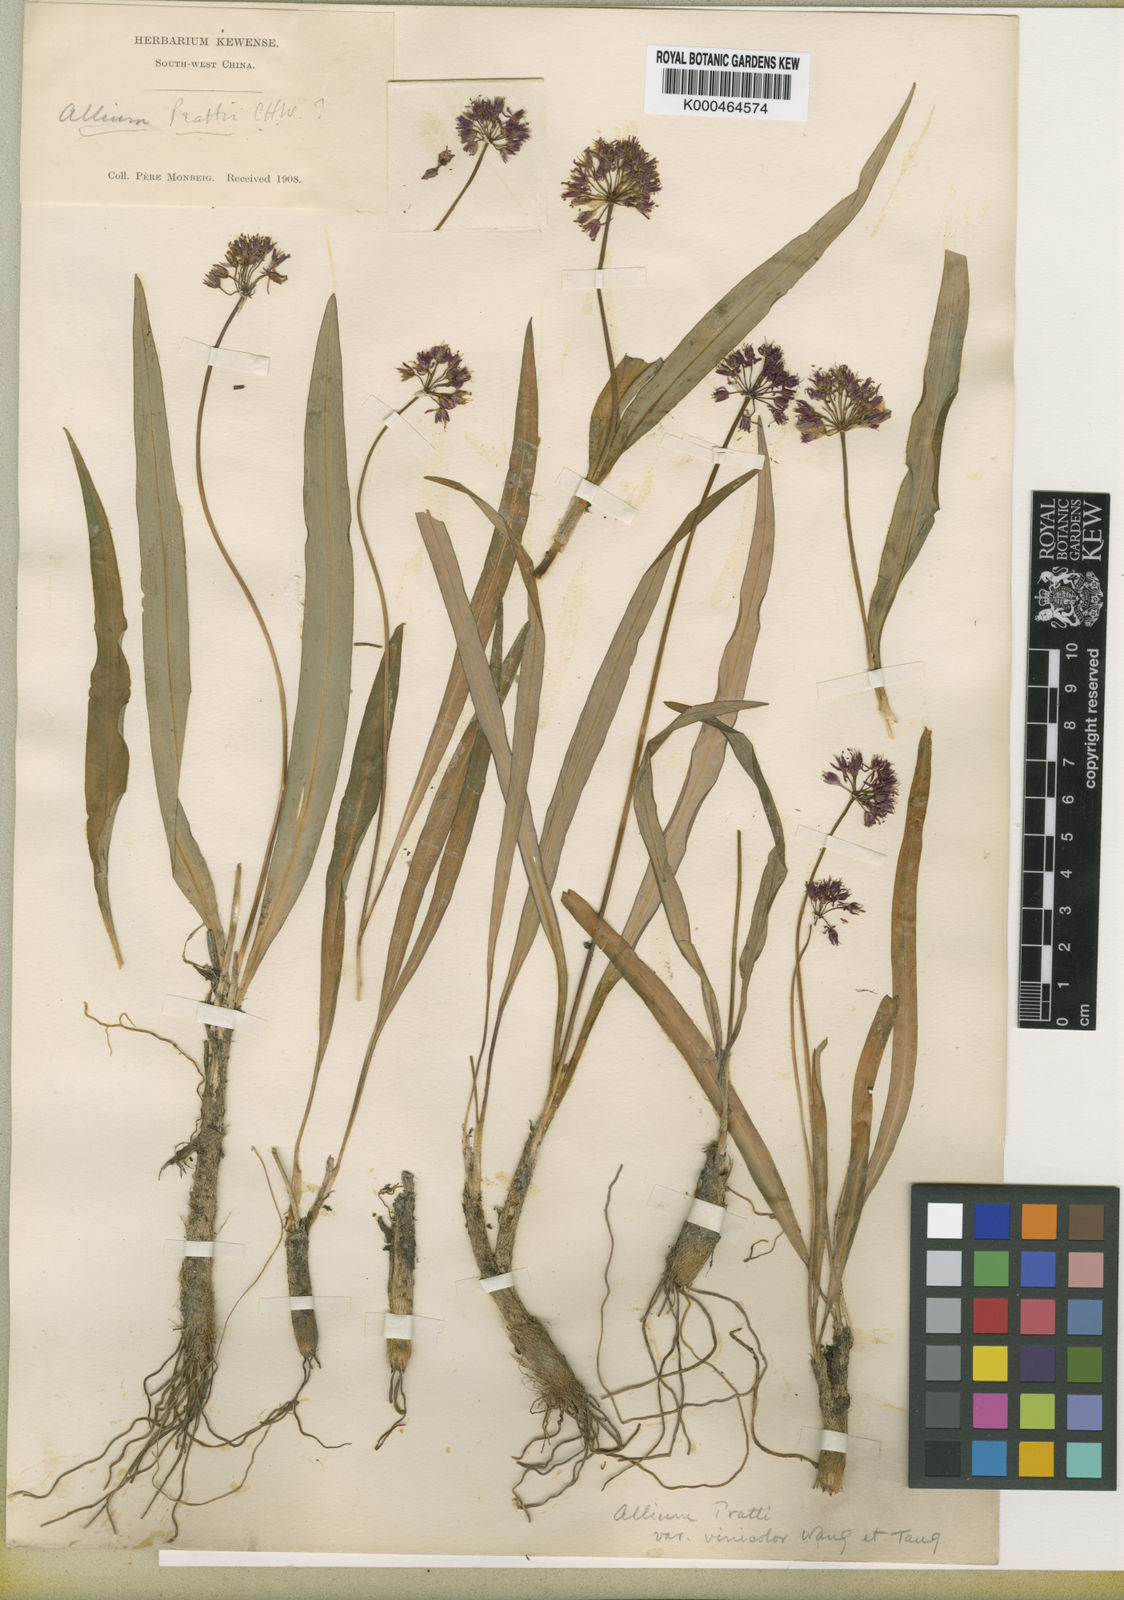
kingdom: Plantae
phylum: Tracheophyta
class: Liliopsida
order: Asparagales
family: Amaryllidaceae
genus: Allium
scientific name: Allium prattii
